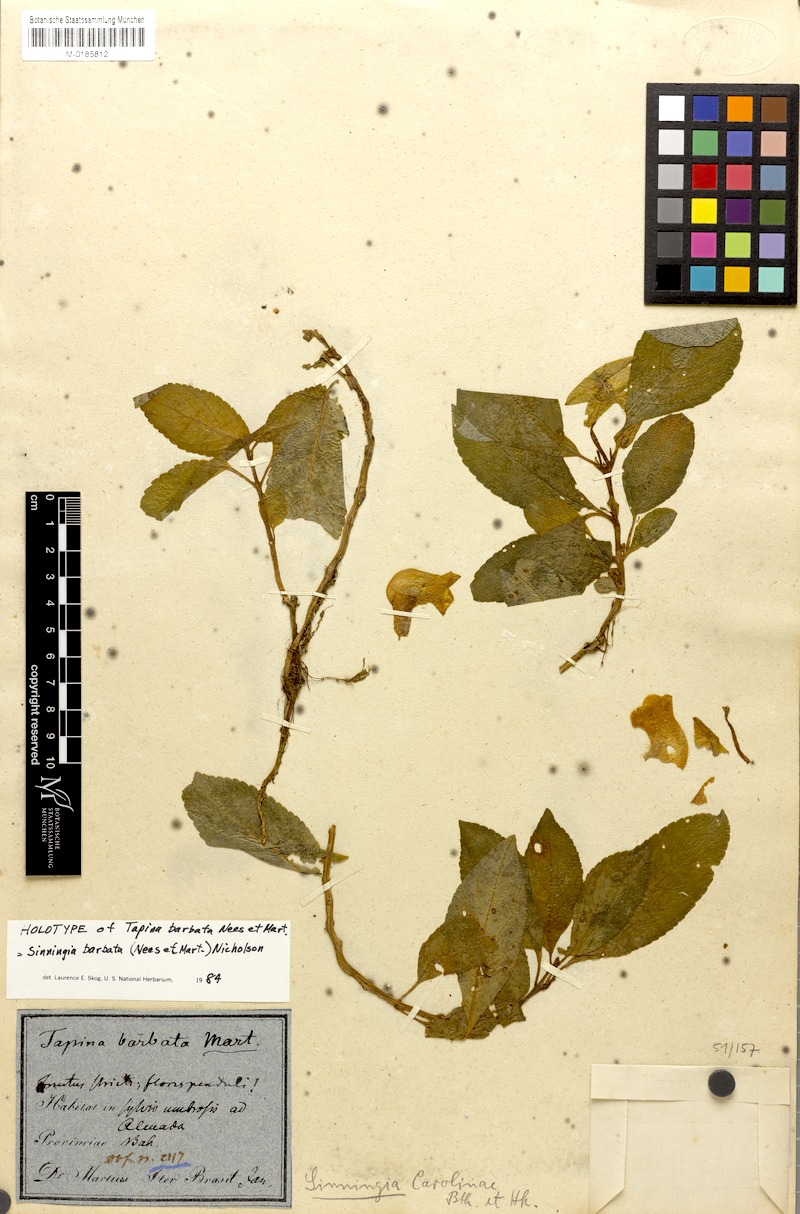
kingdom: Plantae
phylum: Tracheophyta
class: Magnoliopsida
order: Lamiales
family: Gesneriaceae
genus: Sinningia
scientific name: Sinningia barbata
